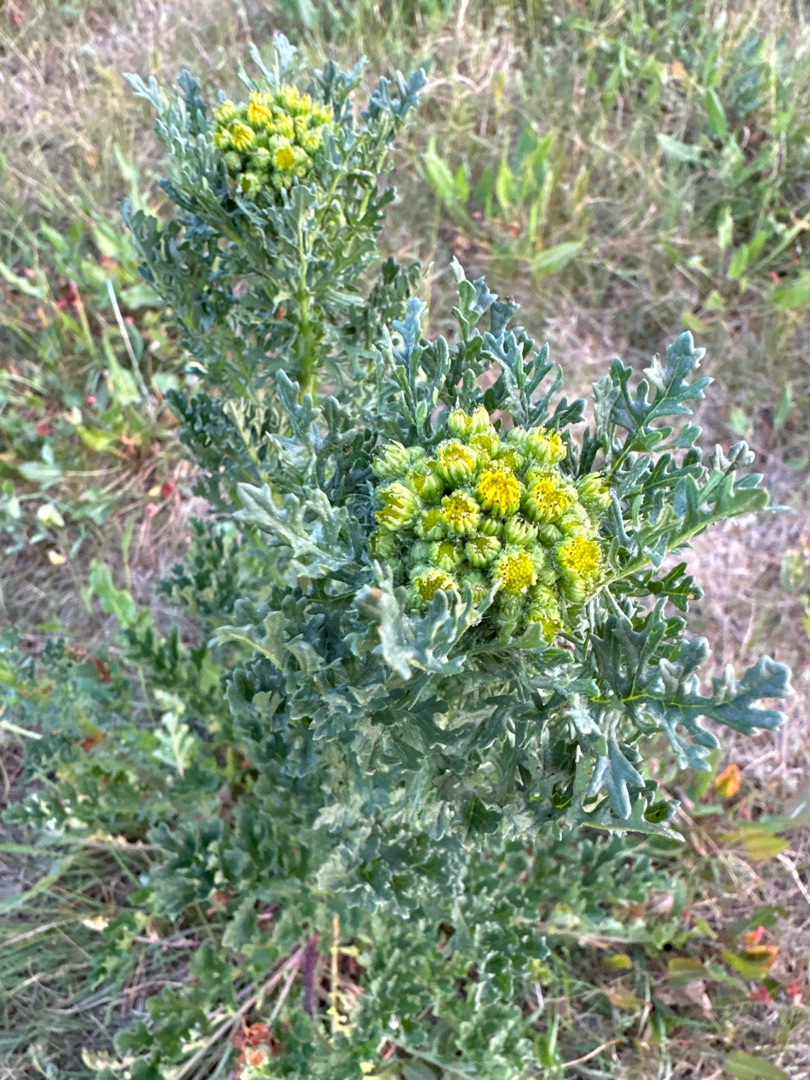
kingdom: Plantae
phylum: Tracheophyta
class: Magnoliopsida
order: Asterales
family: Asteraceae
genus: Jacobaea
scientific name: Jacobaea vulgaris
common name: Eng-brandbæger
